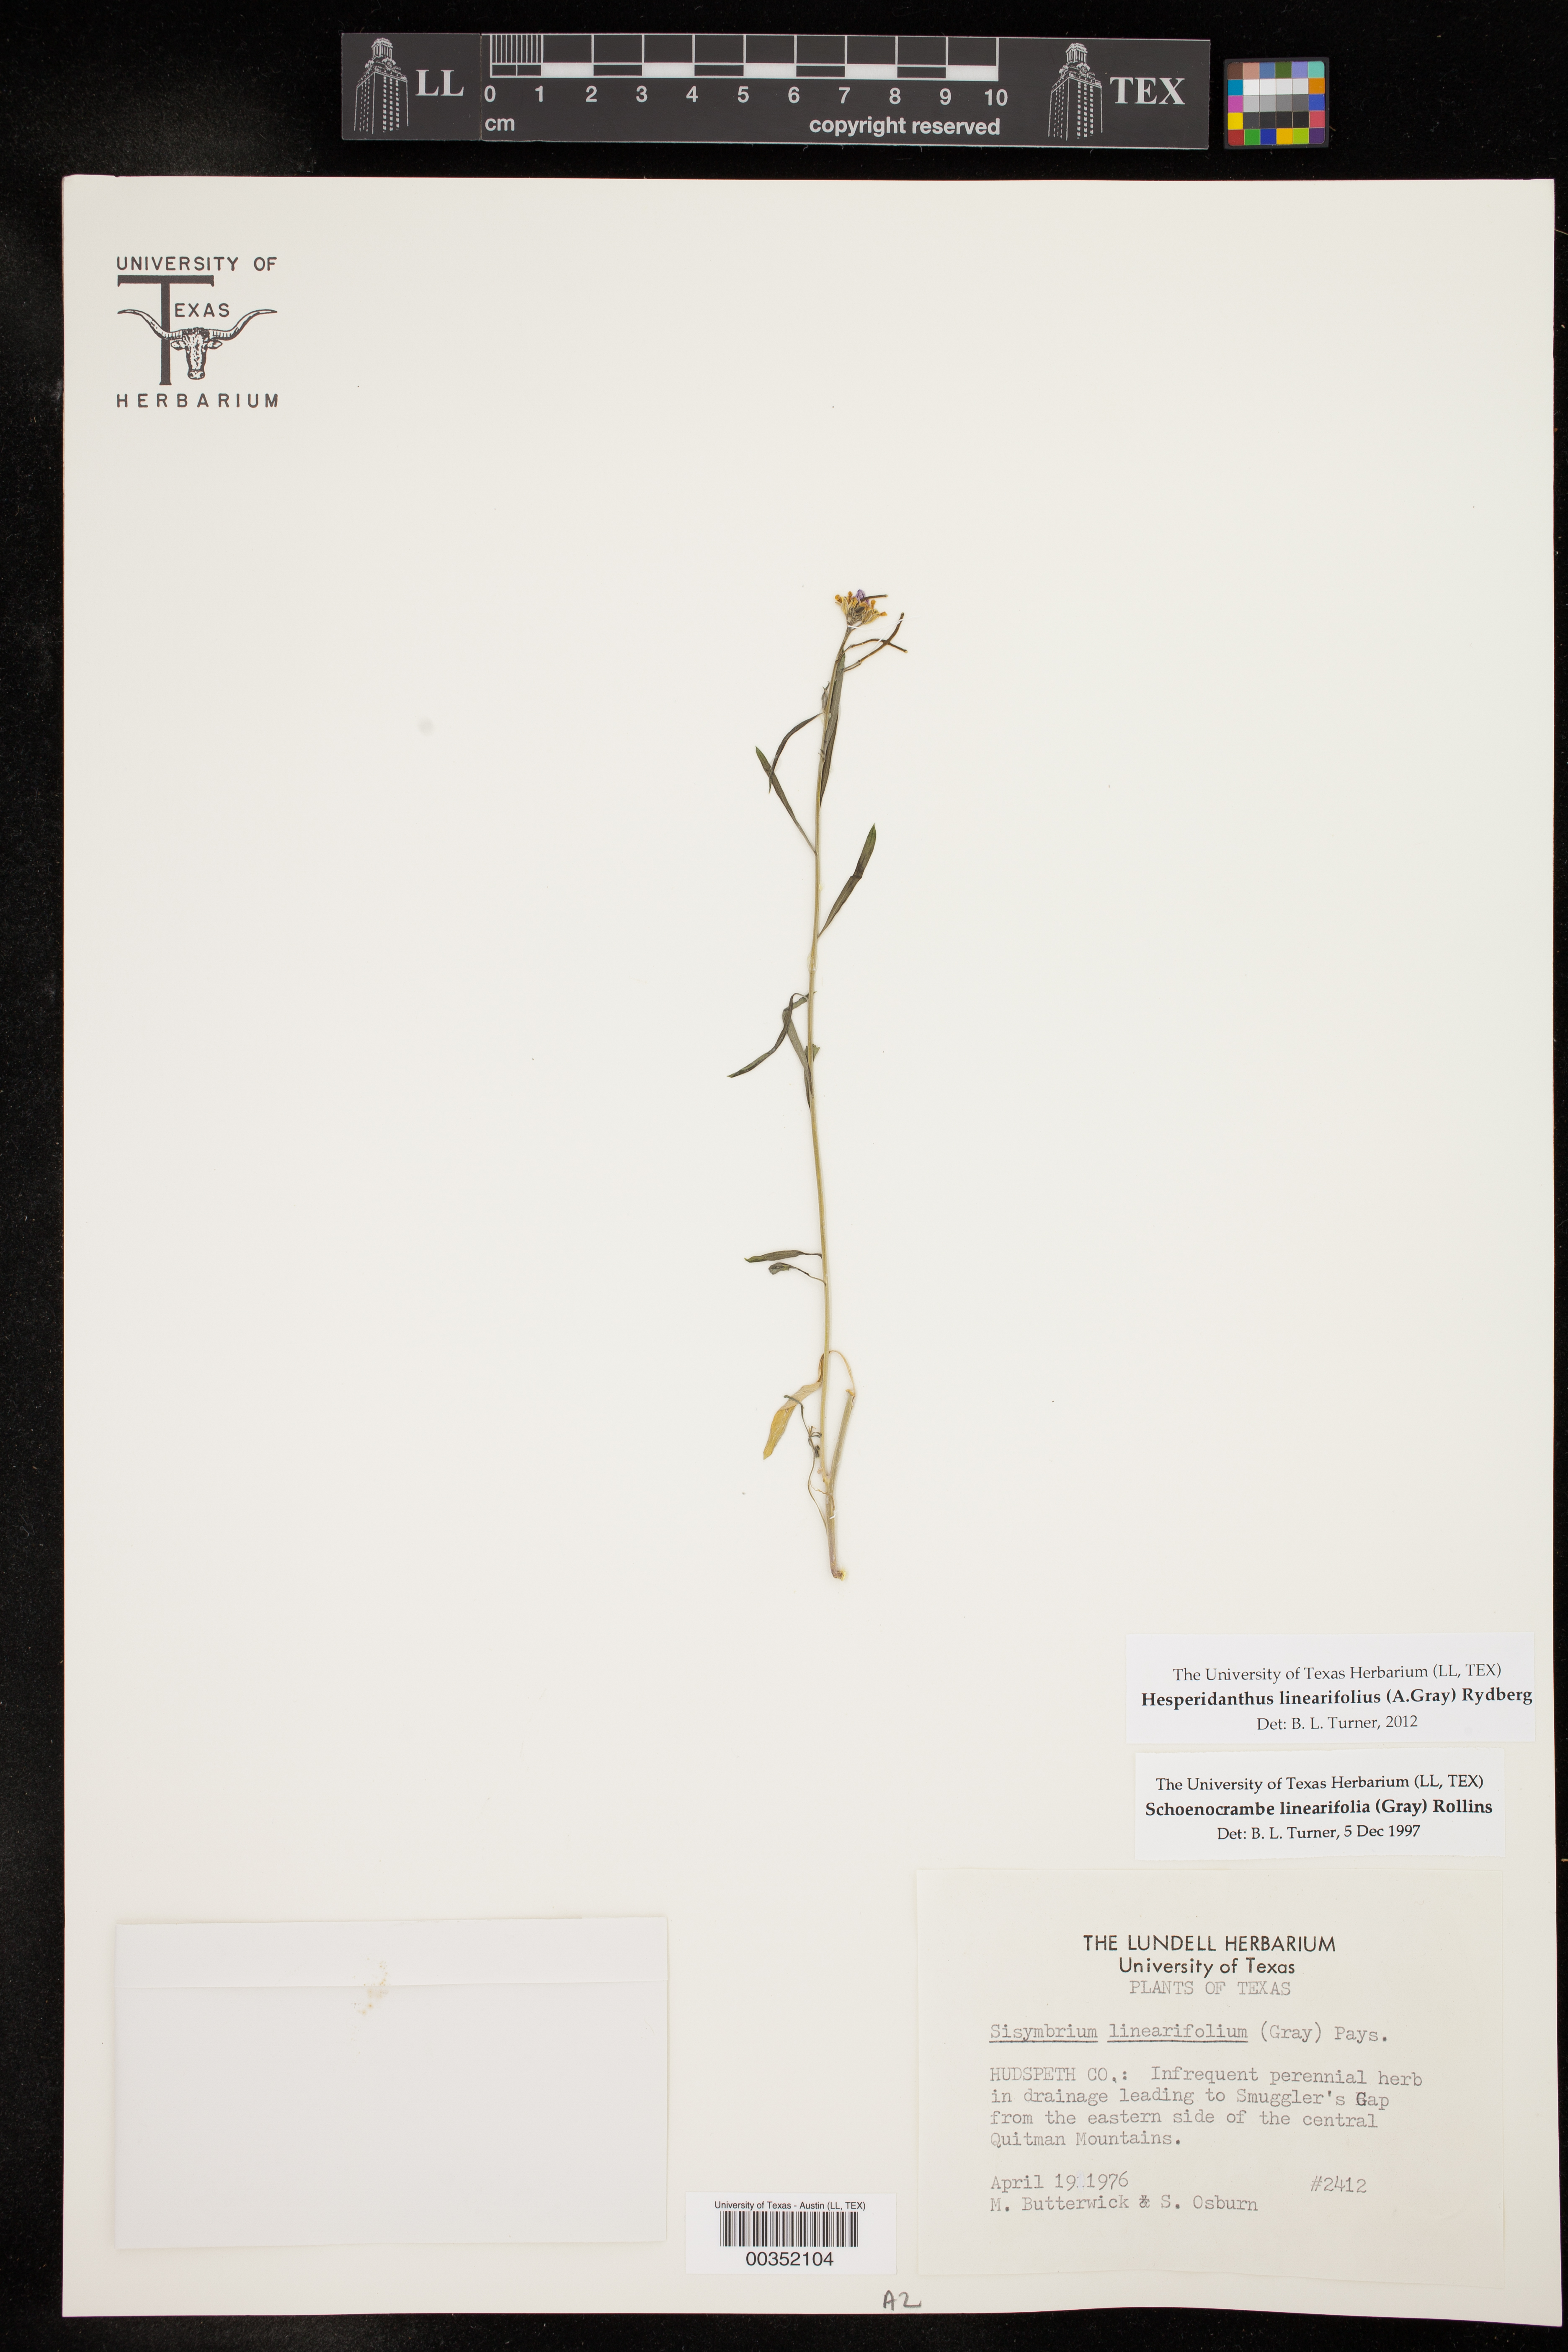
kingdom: Plantae
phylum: Tracheophyta
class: Magnoliopsida
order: Brassicales
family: Brassicaceae
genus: Hesperidanthus
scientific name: Hesperidanthus linearifolius
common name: Slim-leaf plains mustard
